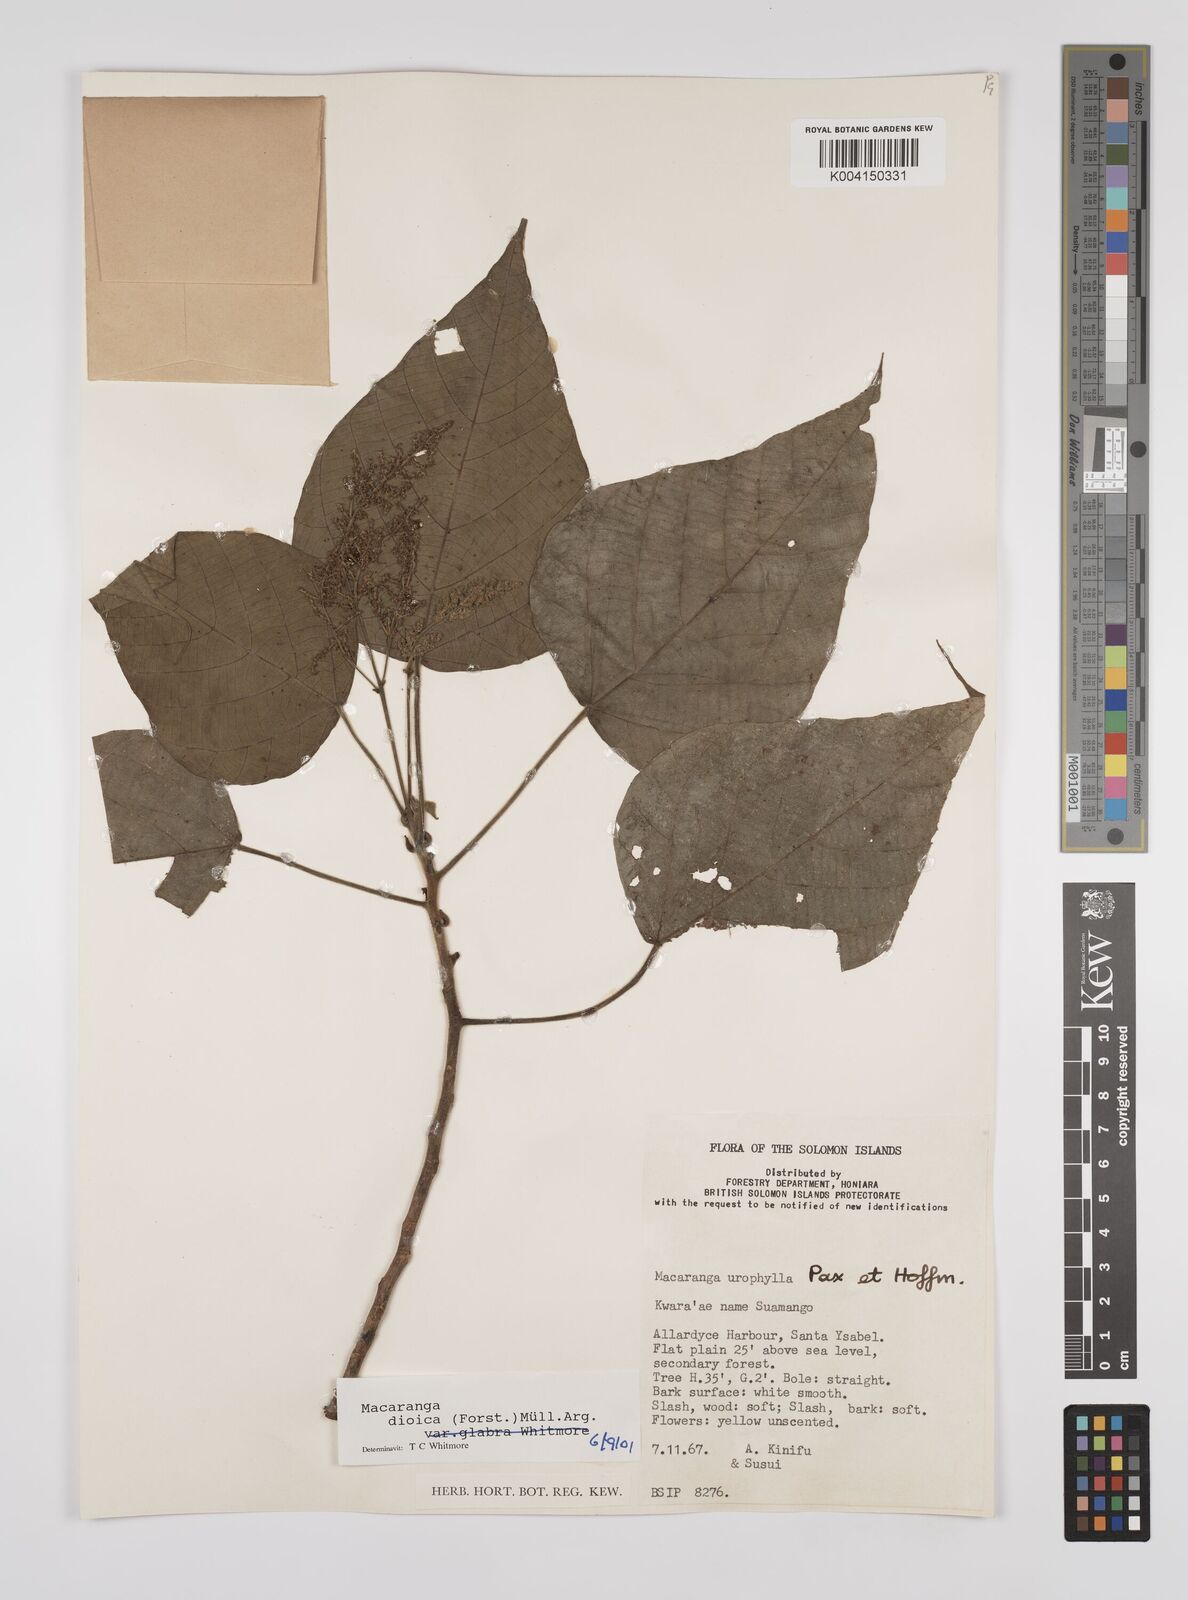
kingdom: Plantae
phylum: Tracheophyta
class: Magnoliopsida
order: Malpighiales
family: Euphorbiaceae
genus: Macaranga
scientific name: Macaranga dioica
